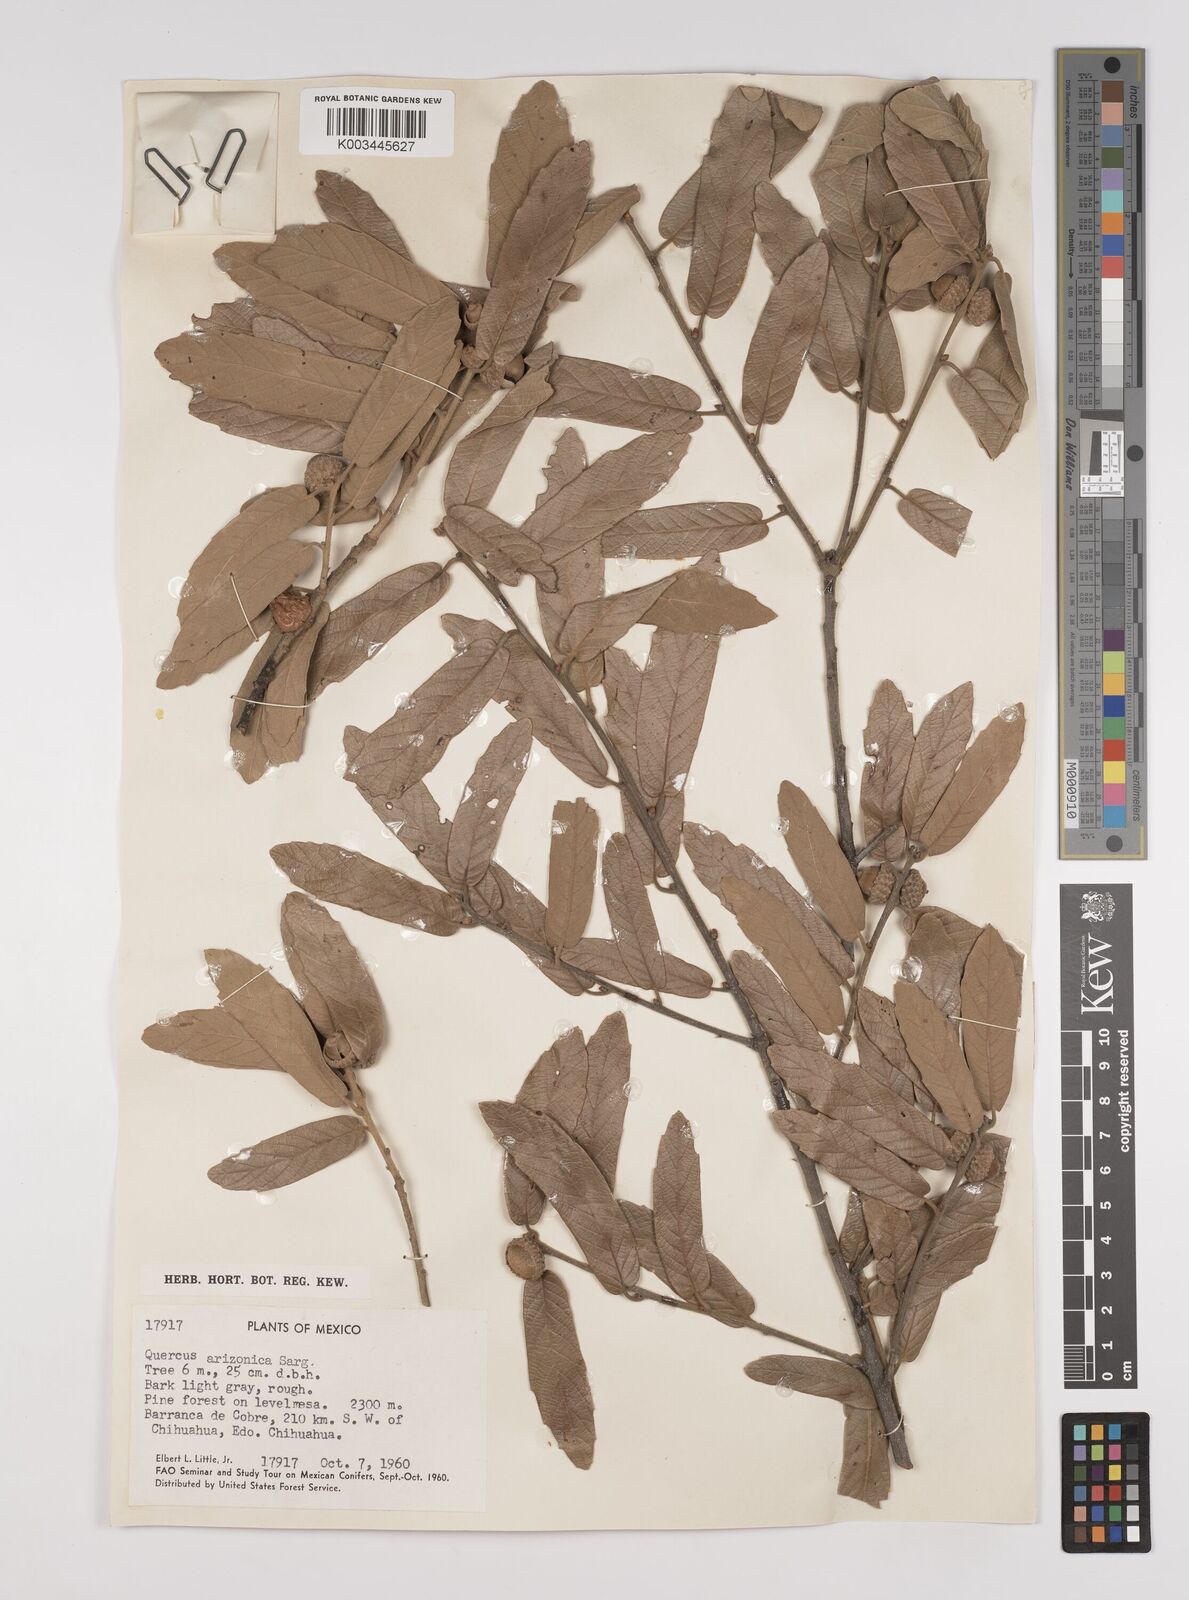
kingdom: Plantae
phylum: Tracheophyta
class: Magnoliopsida
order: Fagales
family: Fagaceae
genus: Quercus
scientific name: Quercus arizonica
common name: Arizona white oak
